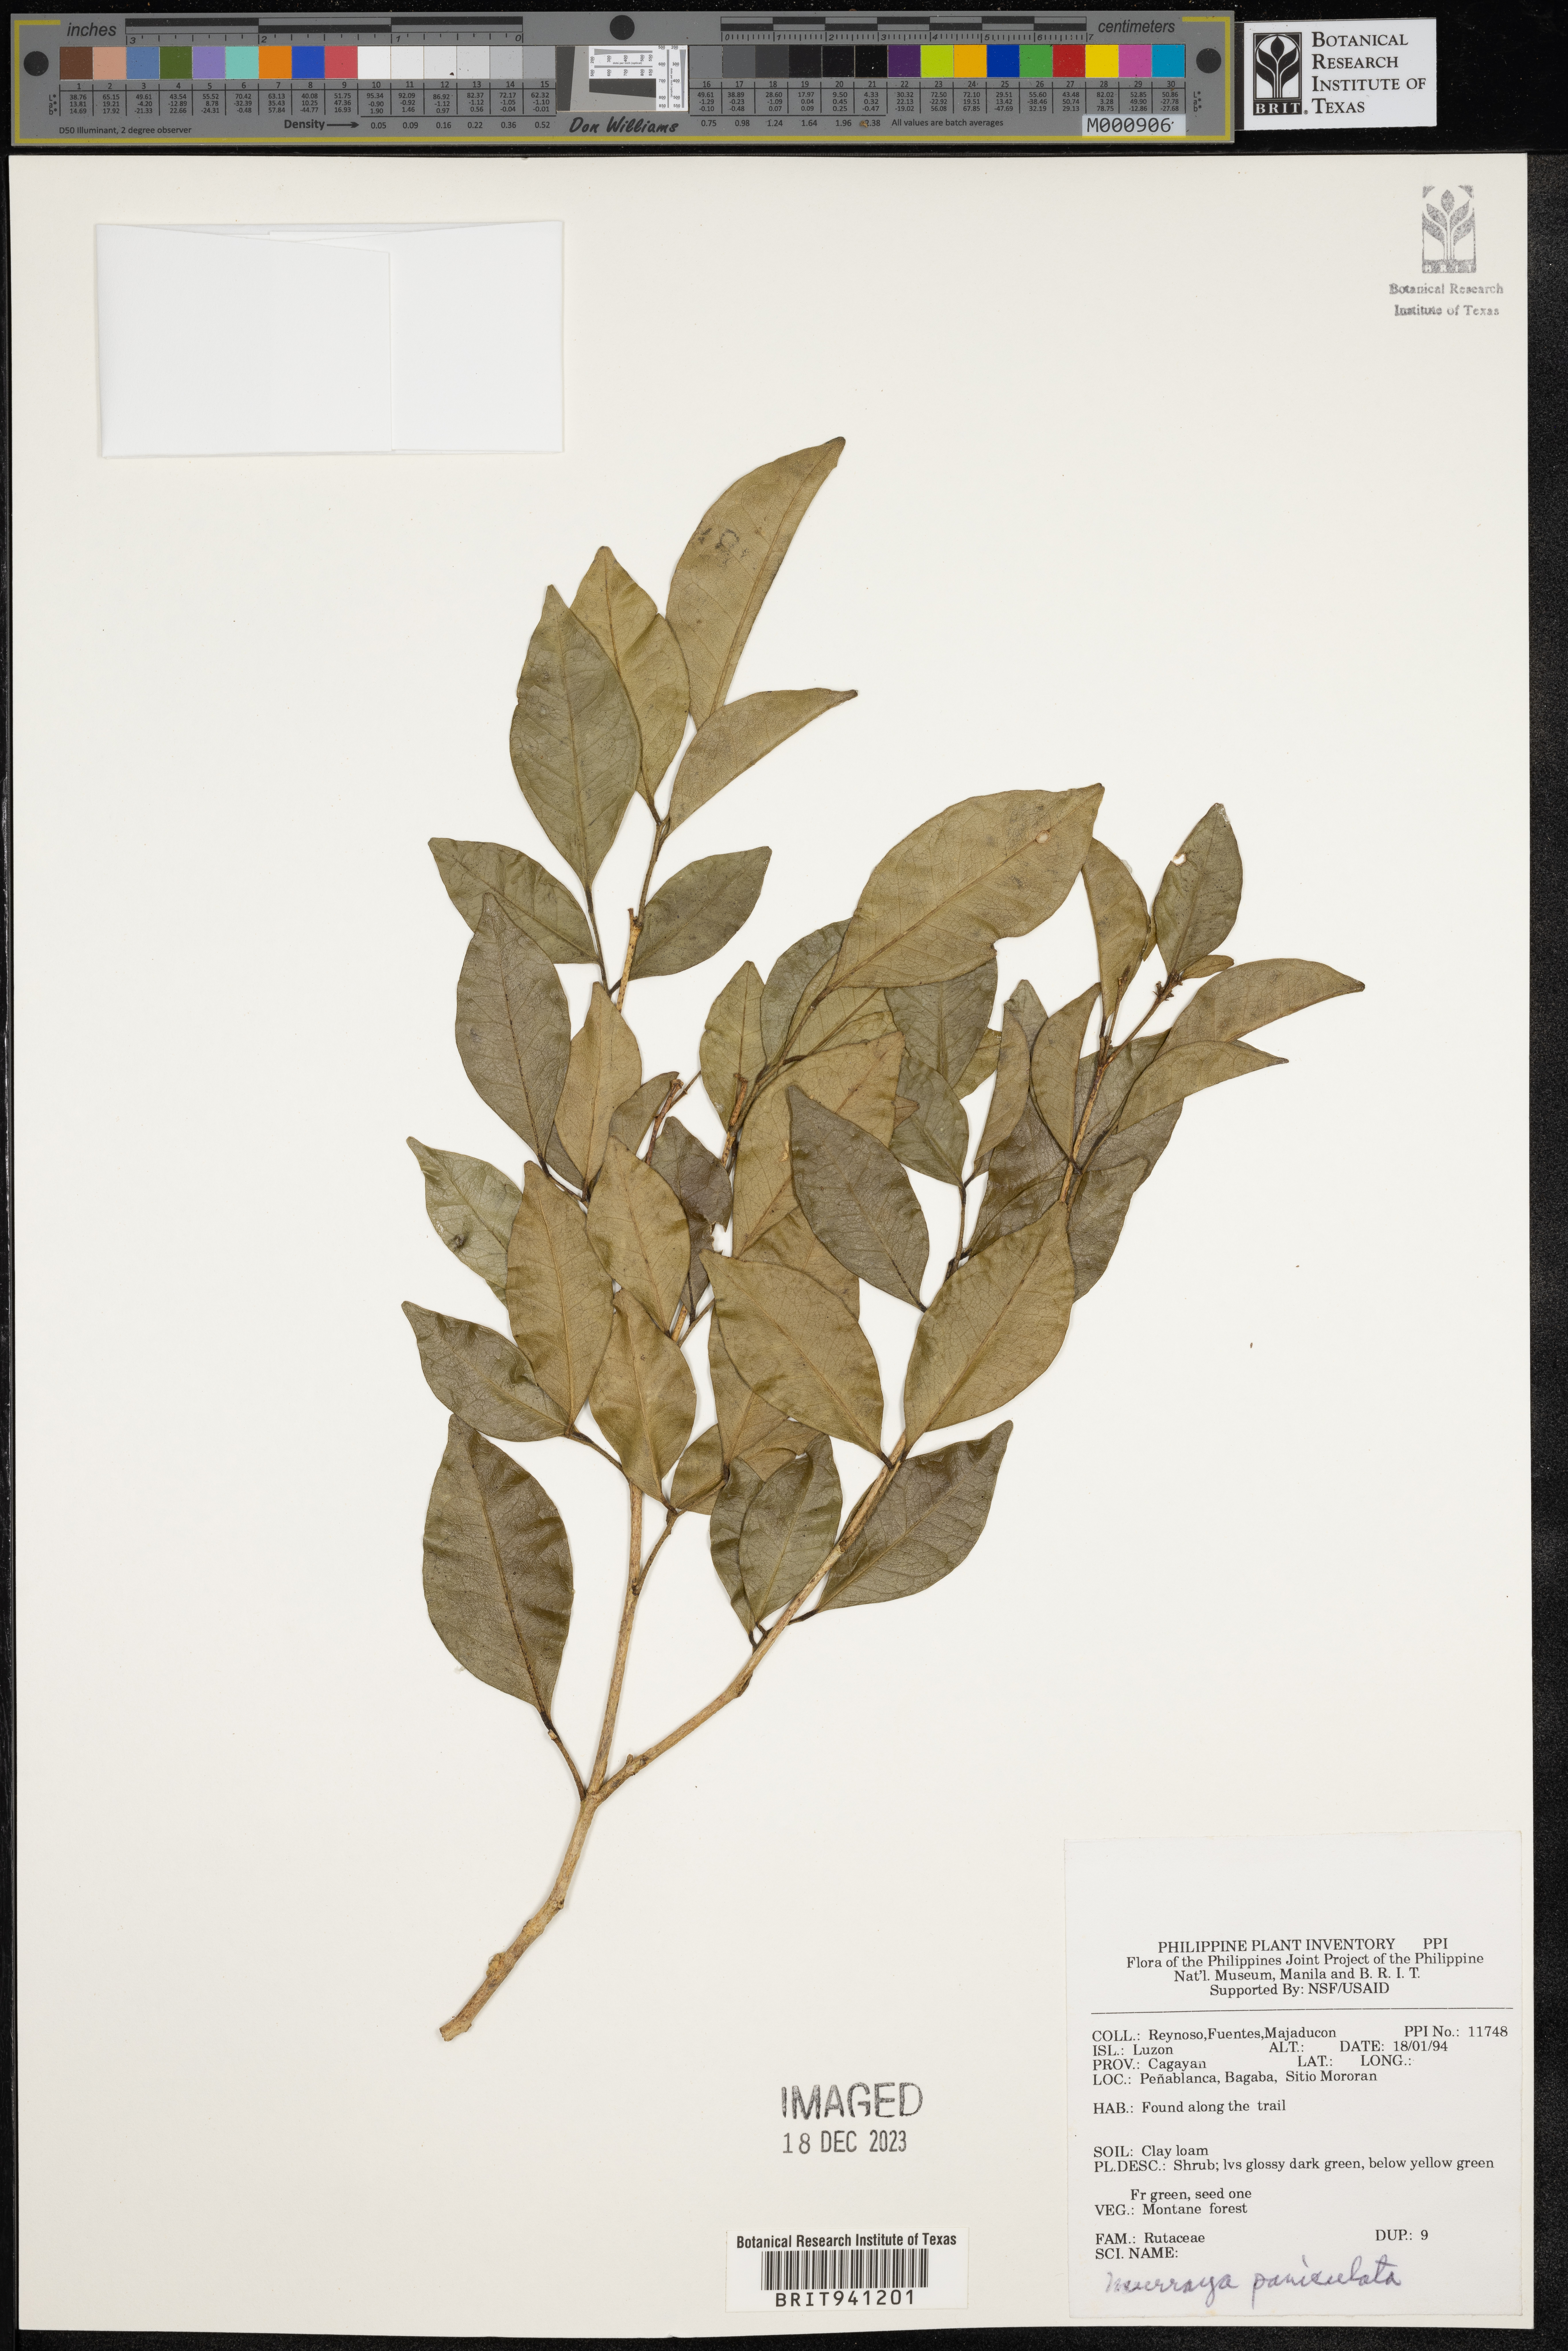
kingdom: Plantae
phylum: Tracheophyta
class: Magnoliopsida
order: Sapindales
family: Rutaceae
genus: Murraya
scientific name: Murraya
